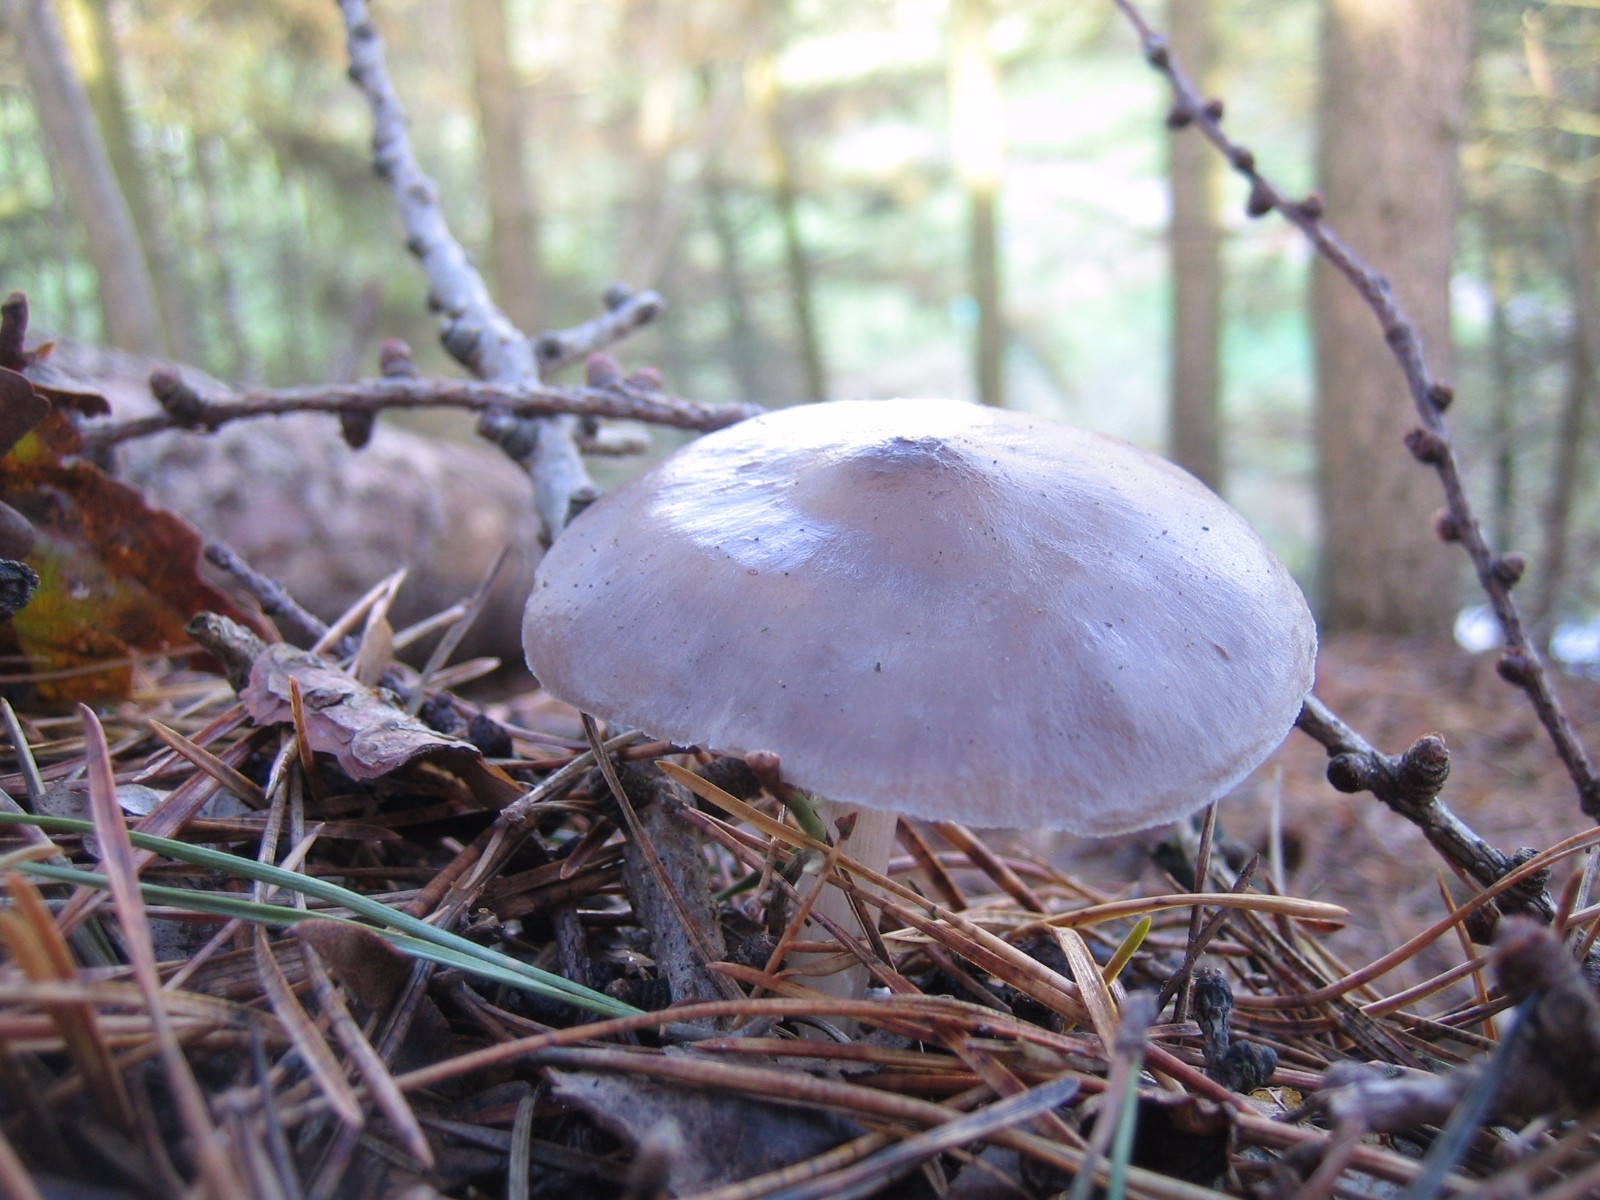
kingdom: Fungi
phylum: Basidiomycota
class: Agaricomycetes
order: Agaricales
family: Pluteaceae
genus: Pluteus
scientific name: Pluteus pouzarianus
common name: plantage-skærmhat
